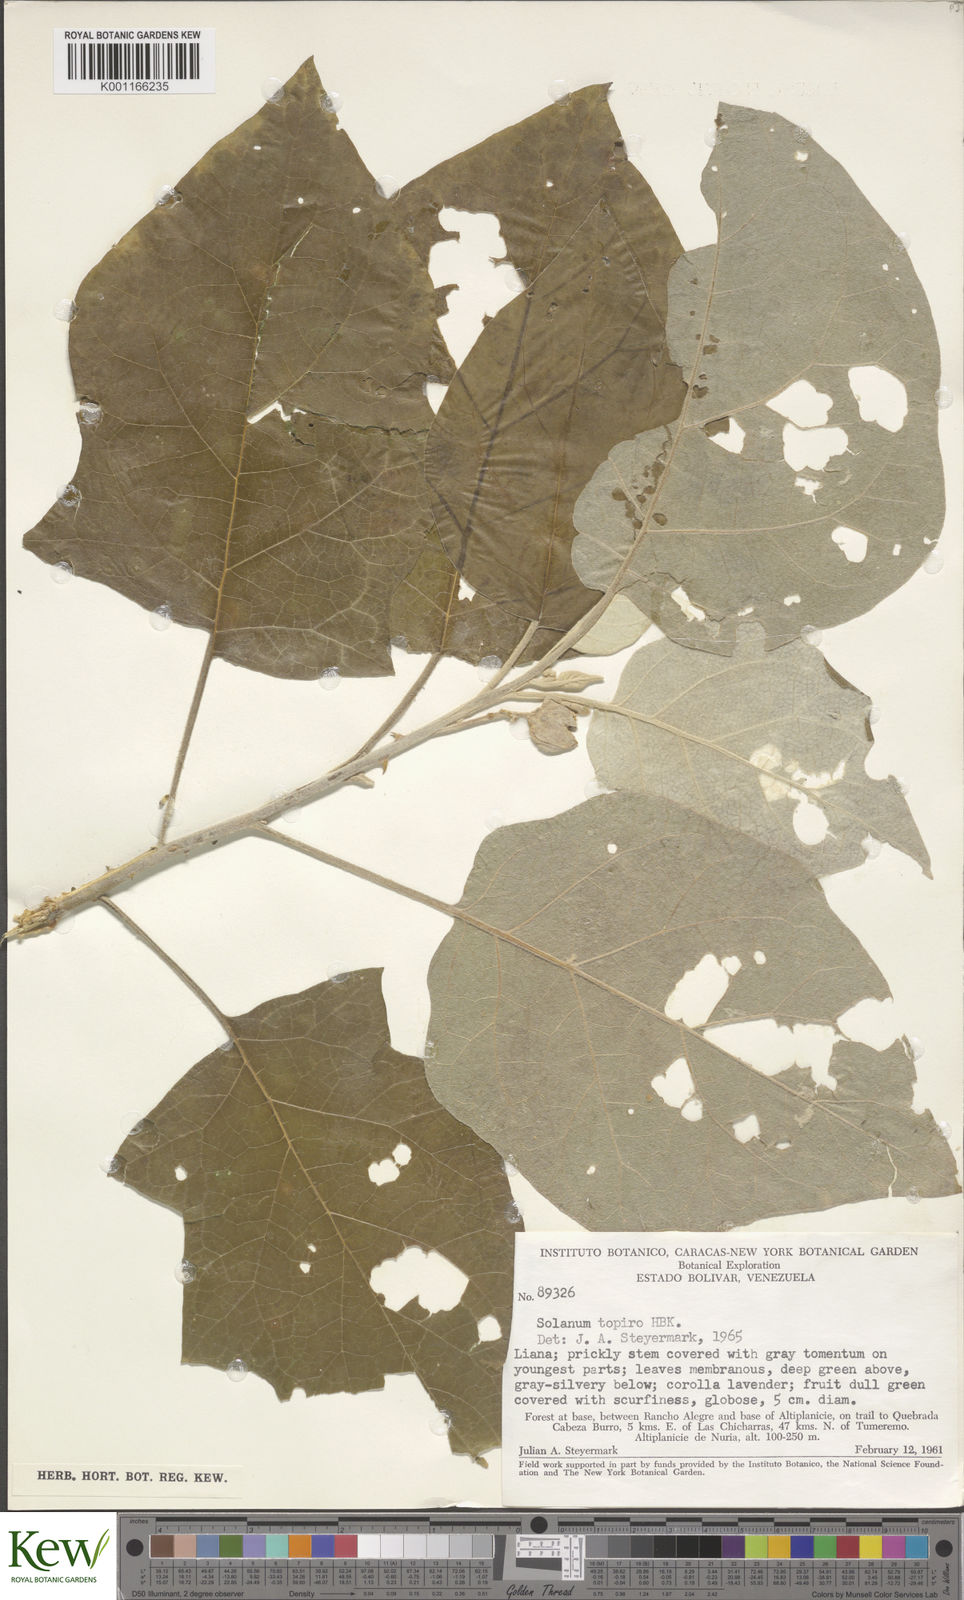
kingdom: Plantae
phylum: Tracheophyta
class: Magnoliopsida
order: Solanales
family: Solanaceae
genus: Solanum
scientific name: Solanum sessiliflorum
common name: Orinoco-apple
